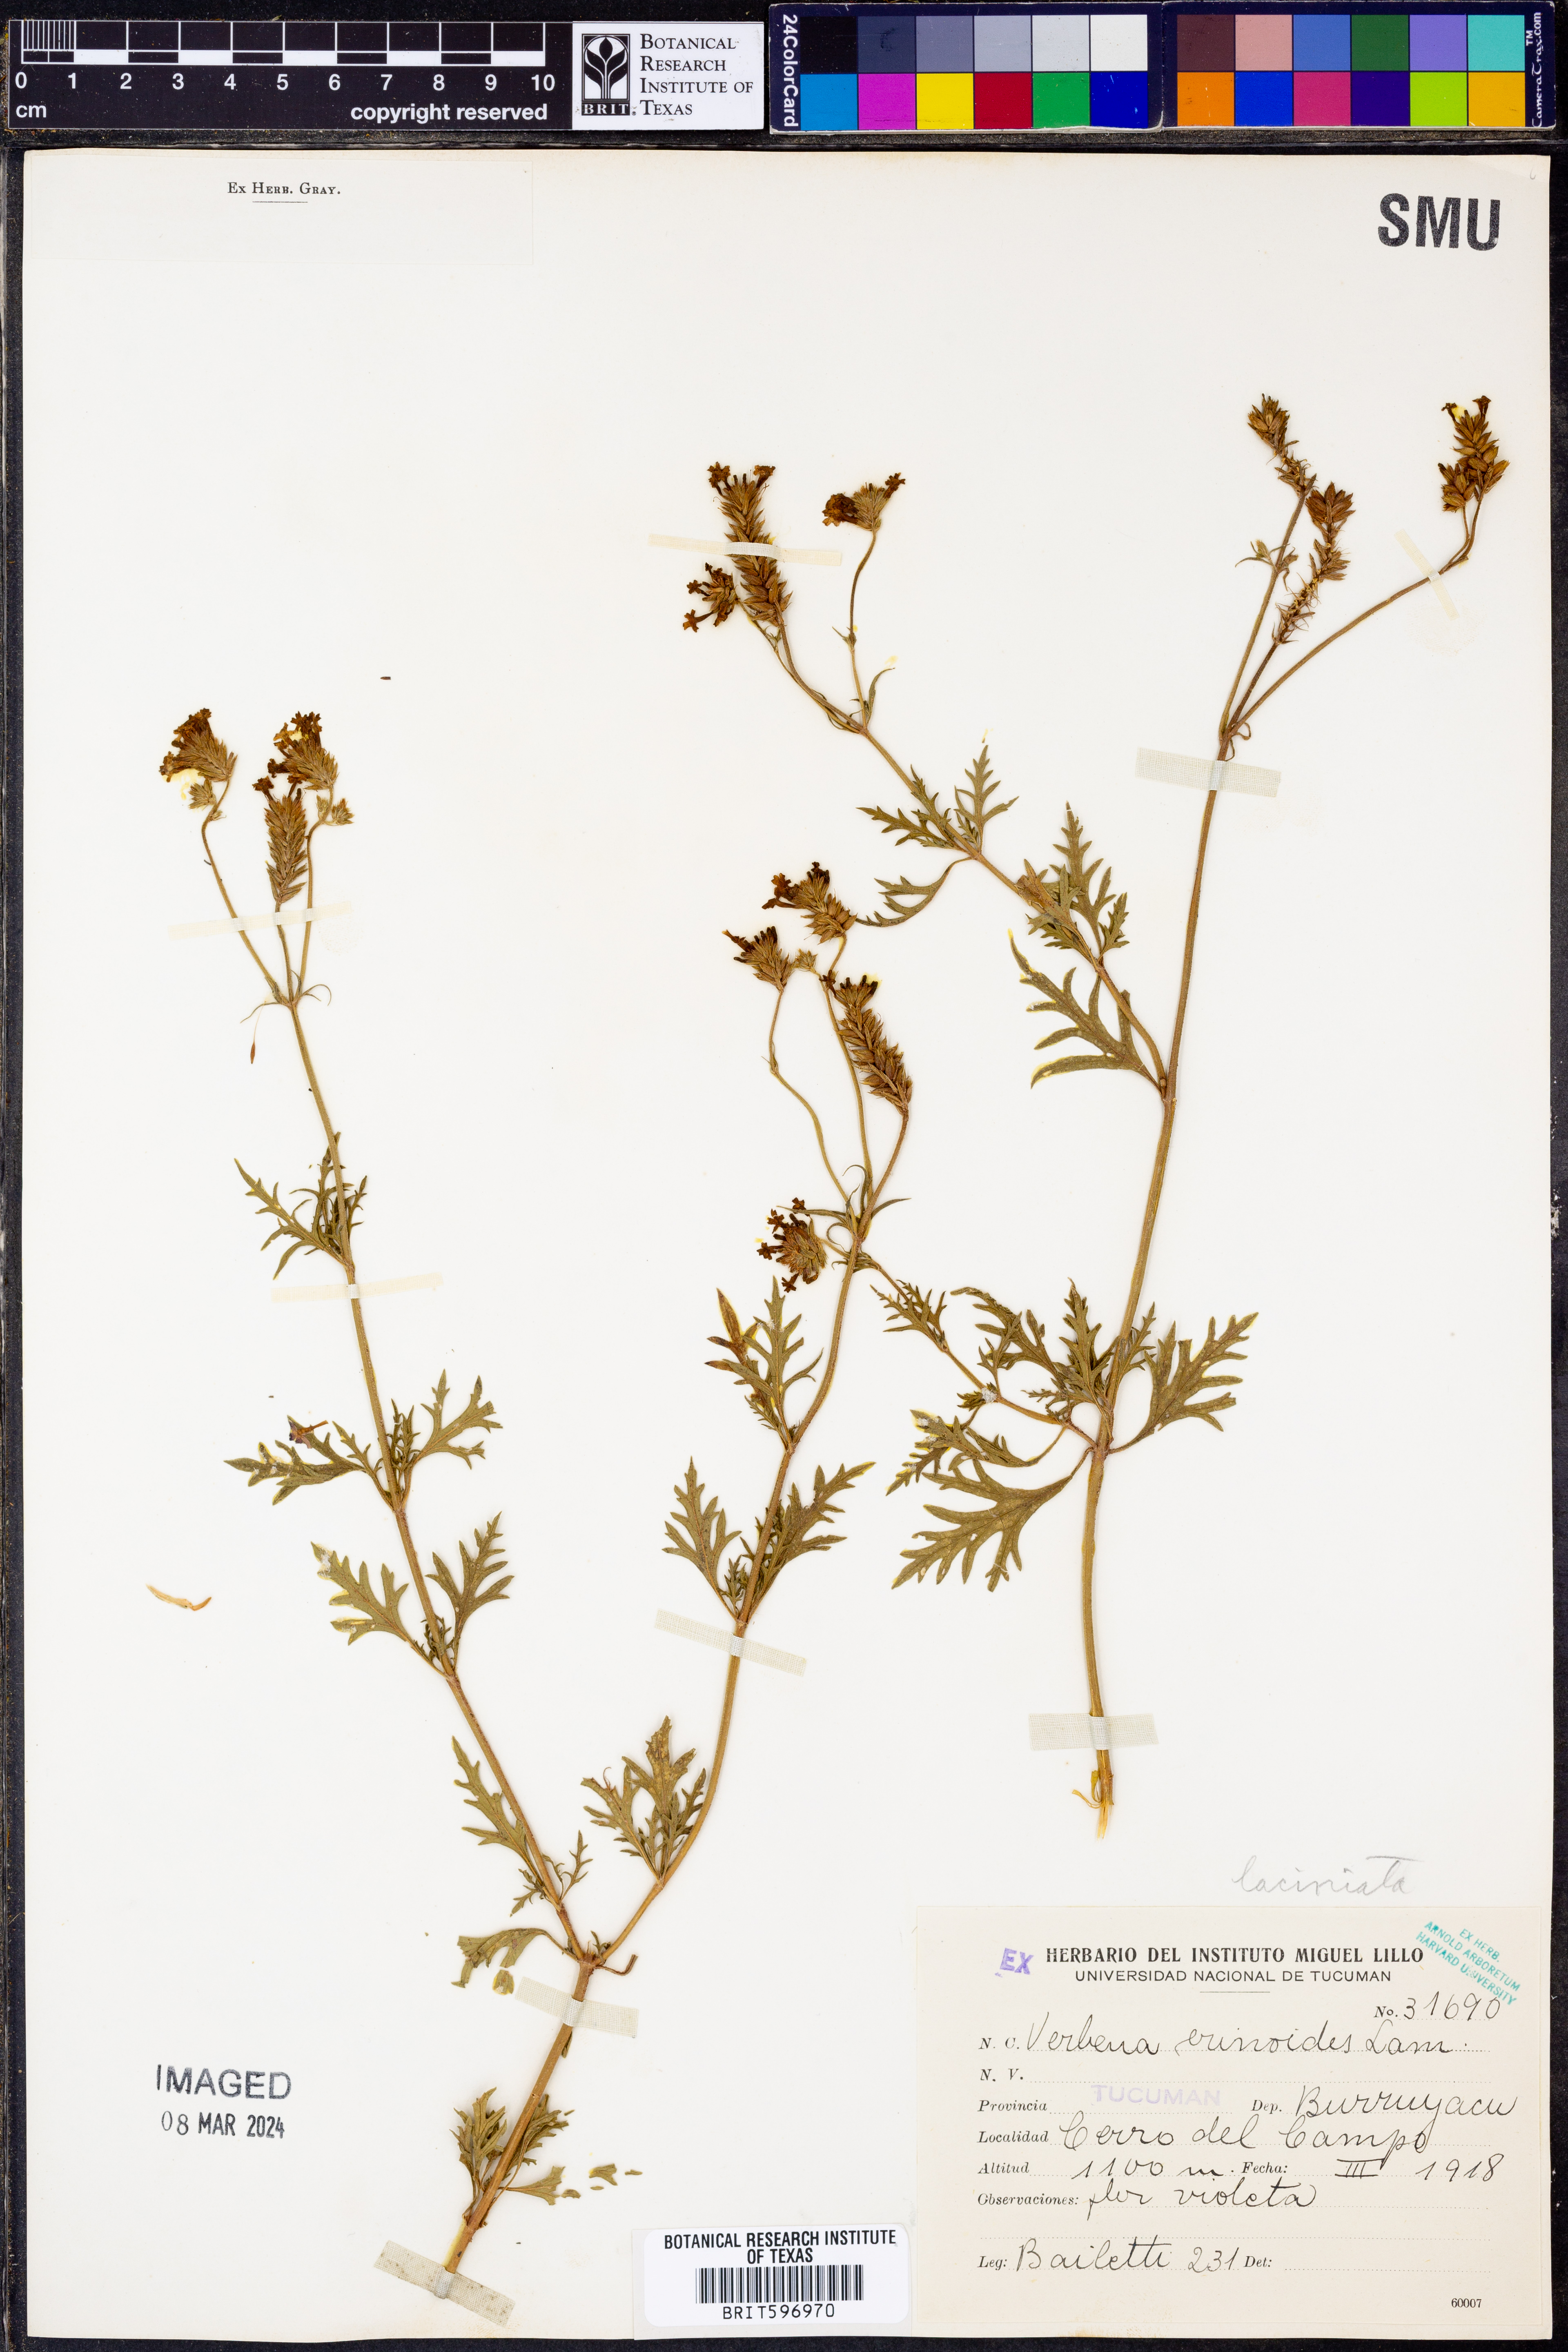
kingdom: Plantae
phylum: Tracheophyta
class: Magnoliopsida
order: Lamiales
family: Verbenaceae
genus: Verbena
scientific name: Verbena
